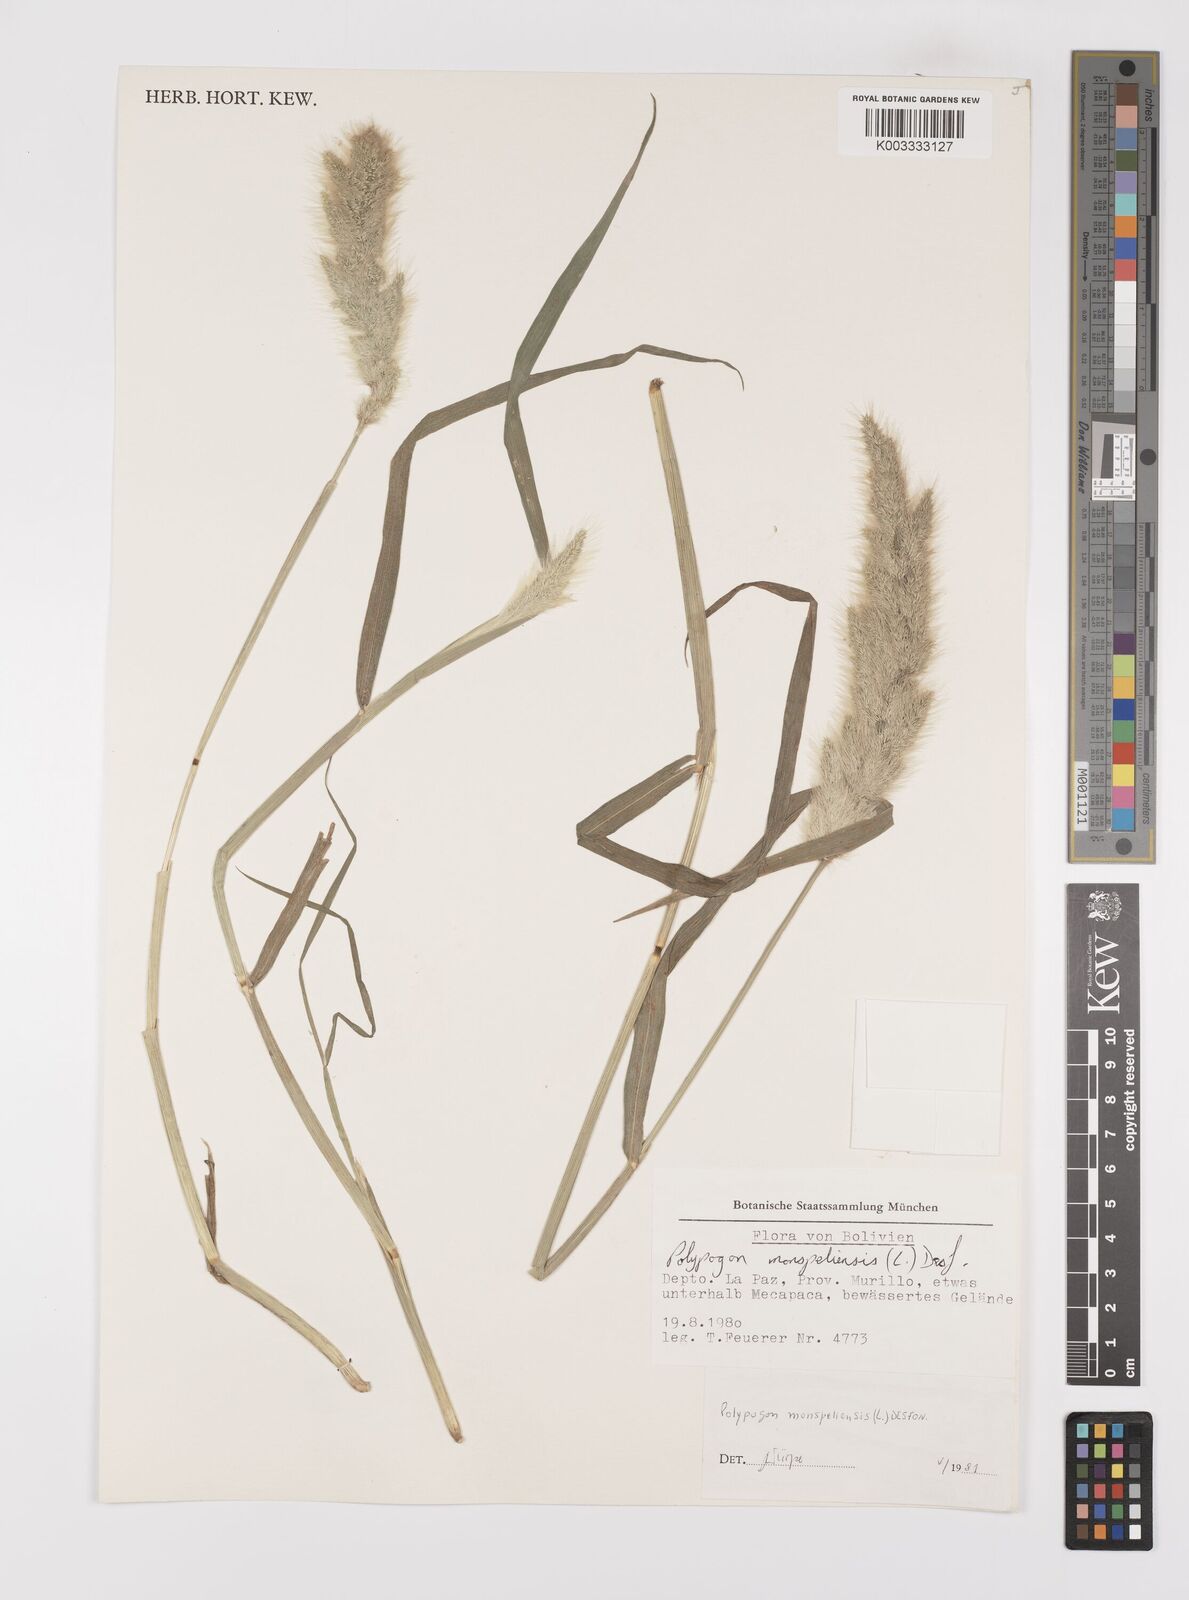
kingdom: Plantae
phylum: Tracheophyta
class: Liliopsida
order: Poales
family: Poaceae
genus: Polypogon
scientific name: Polypogon monspeliensis
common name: Annual rabbitsfoot grass
